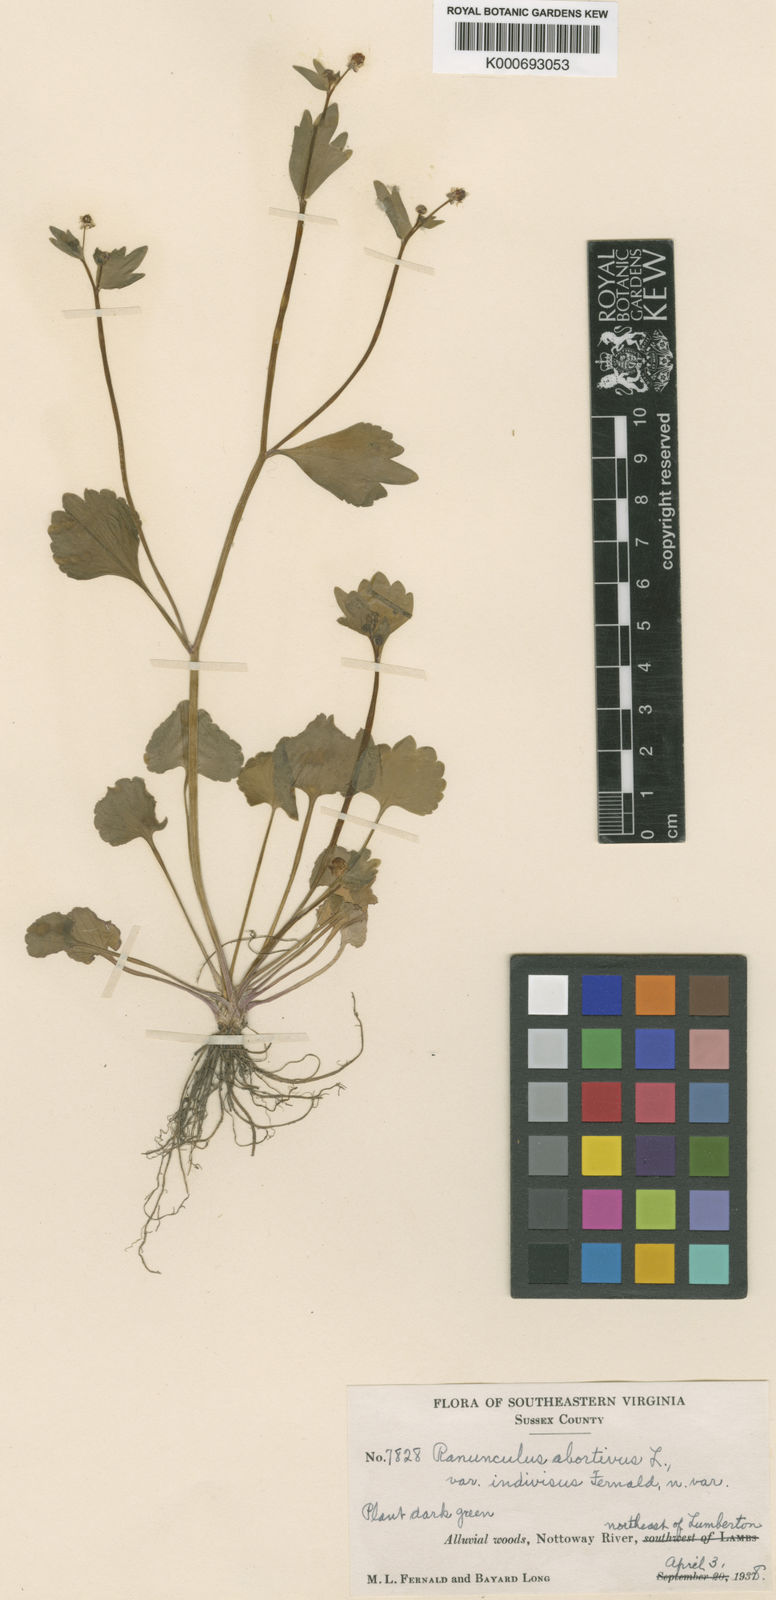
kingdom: Plantae
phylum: Tracheophyta
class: Magnoliopsida
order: Ranunculales
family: Ranunculaceae
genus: Ranunculus
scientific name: Ranunculus abortivus
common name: Early wood buttercup
